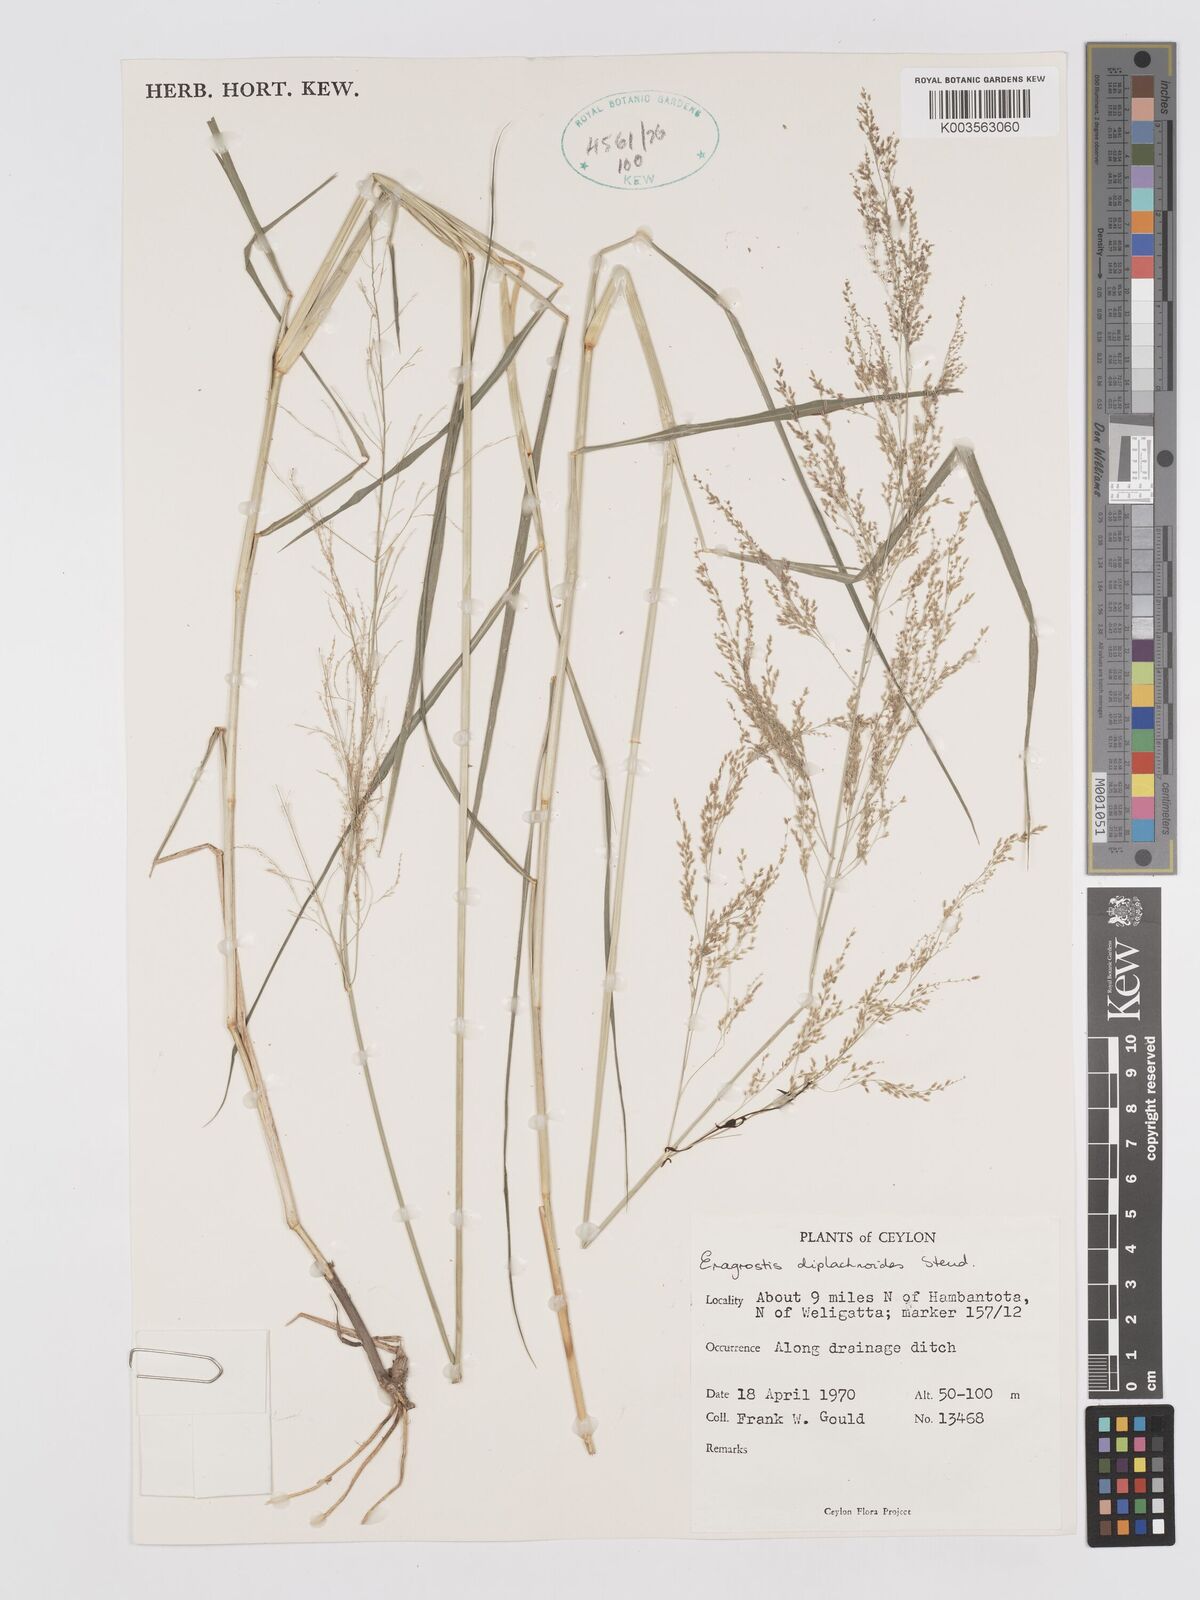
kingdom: Plantae
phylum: Tracheophyta
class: Liliopsida
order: Poales
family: Poaceae
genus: Eragrostis
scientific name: Eragrostis japonica
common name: Pond lovegrass
